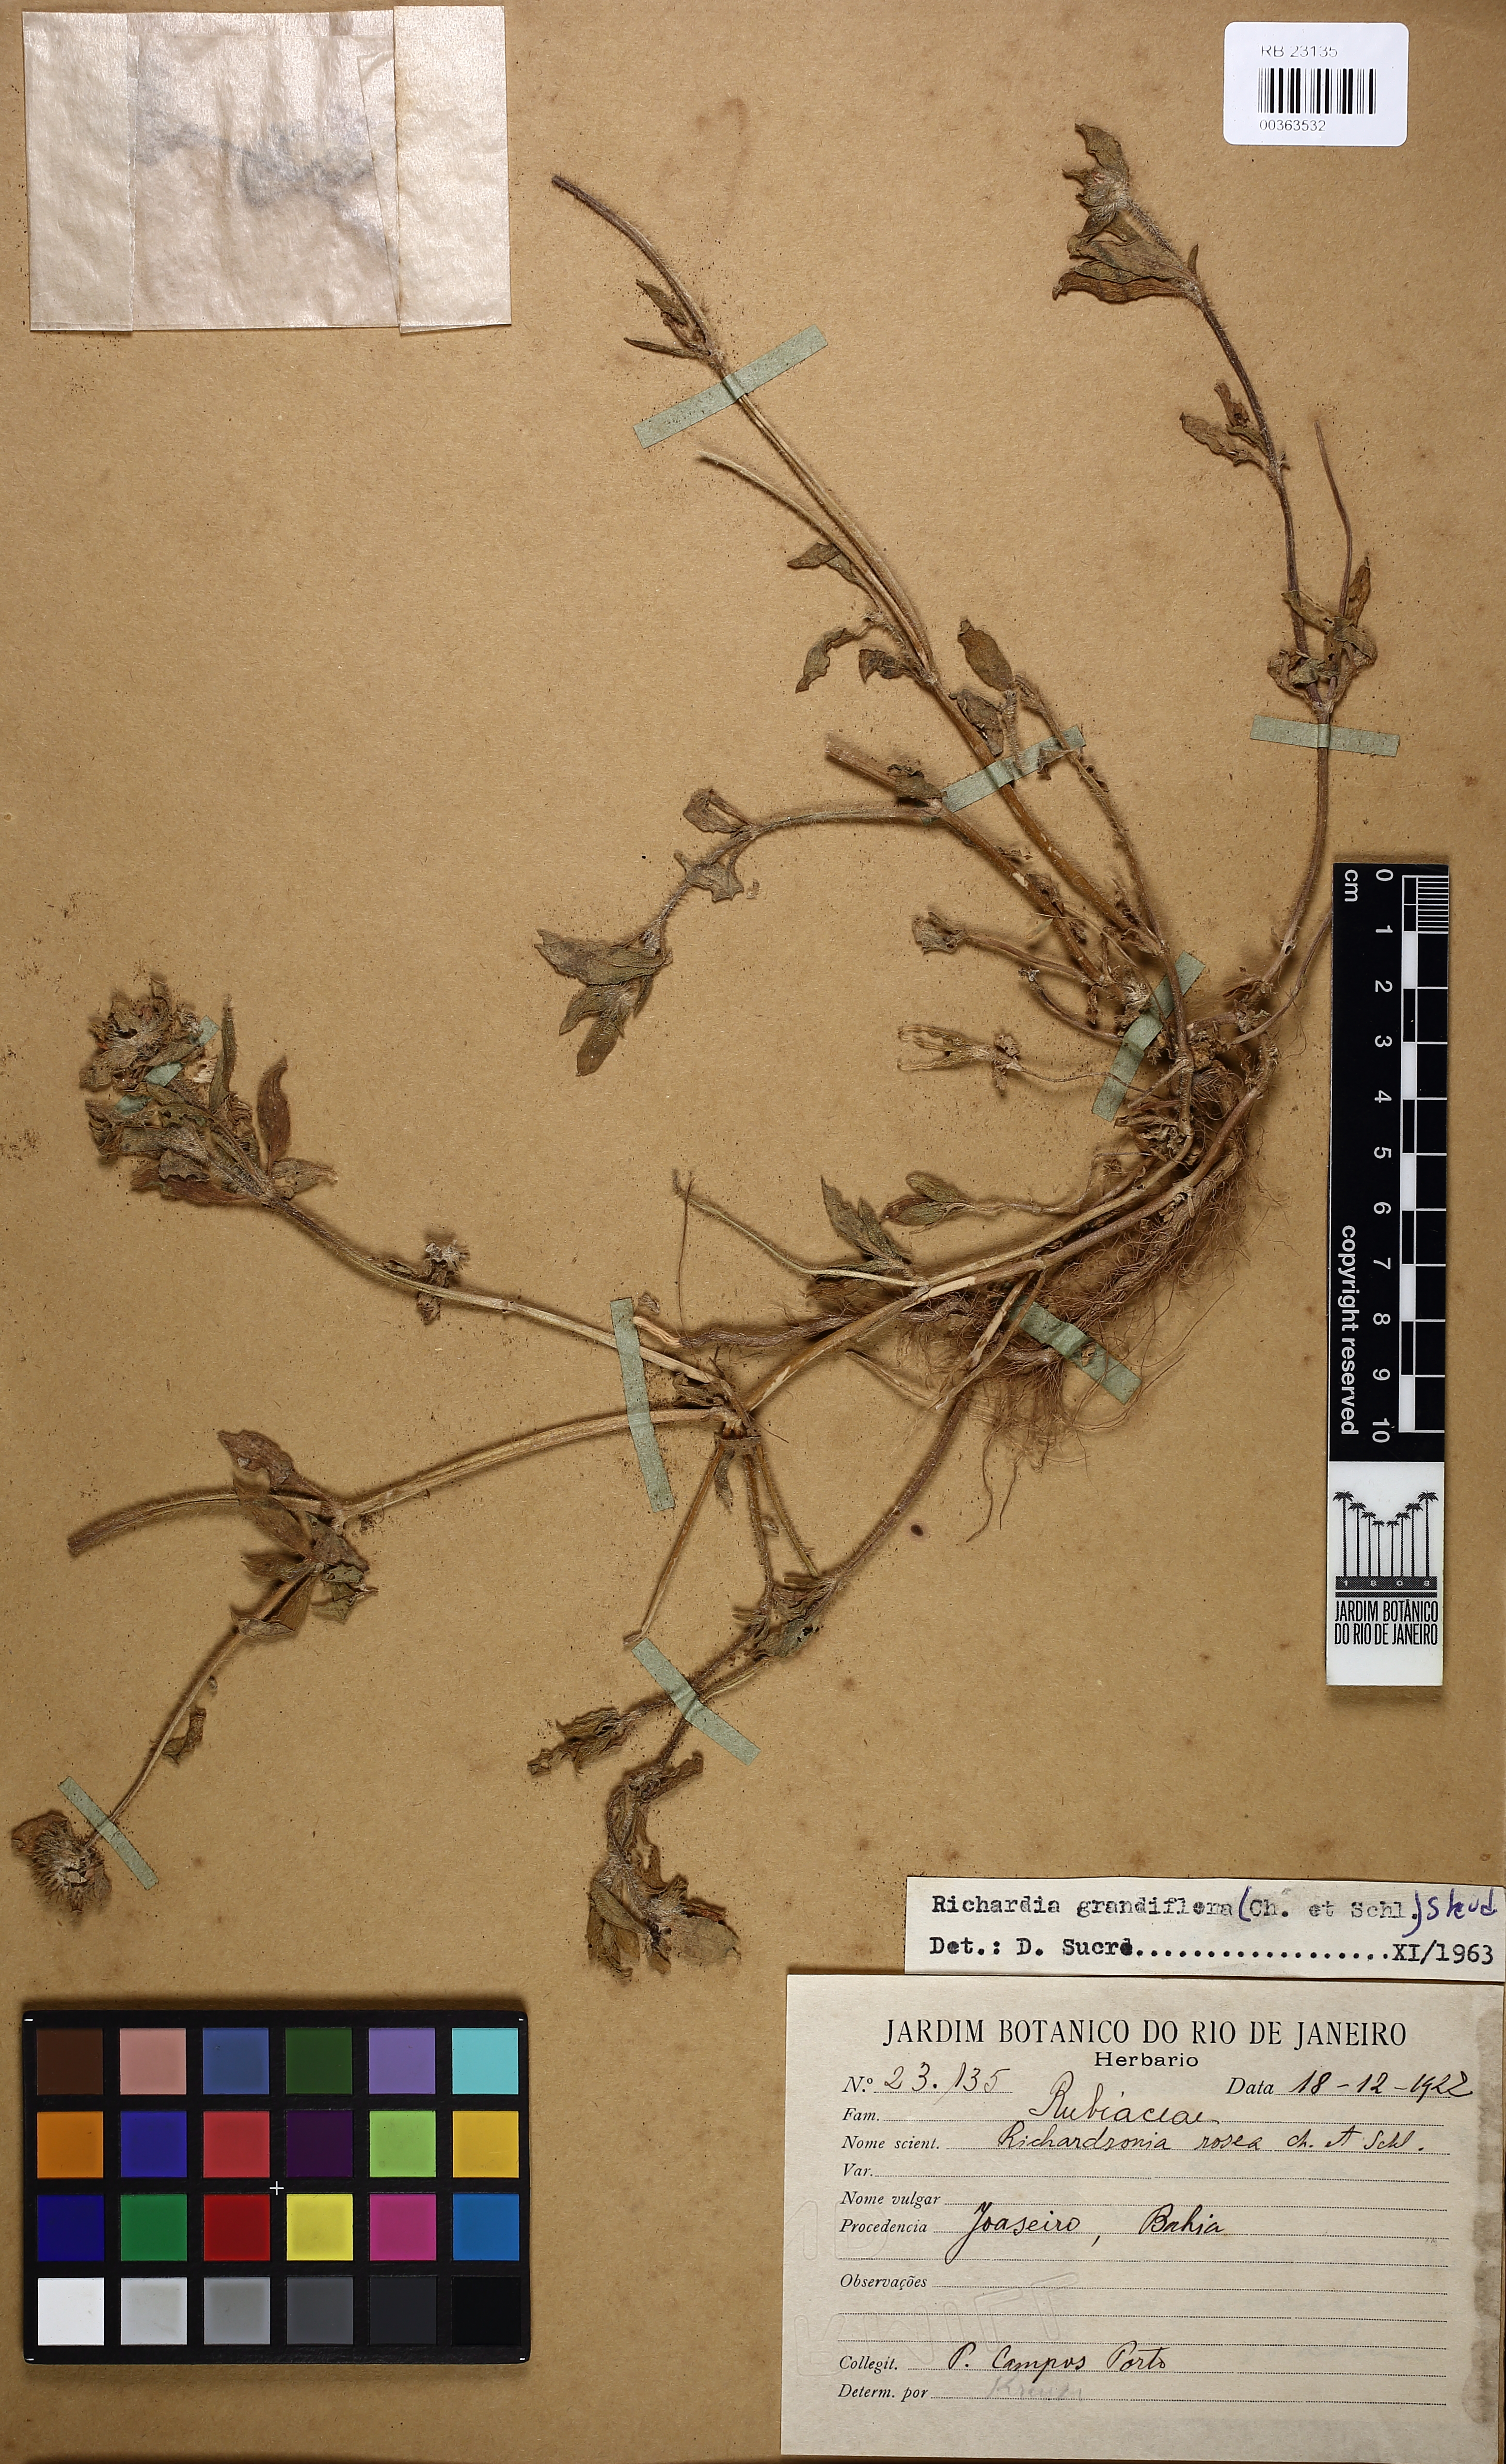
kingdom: Plantae
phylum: Tracheophyta
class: Magnoliopsida
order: Gentianales
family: Rubiaceae
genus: Richardia
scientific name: Richardia grandiflora
